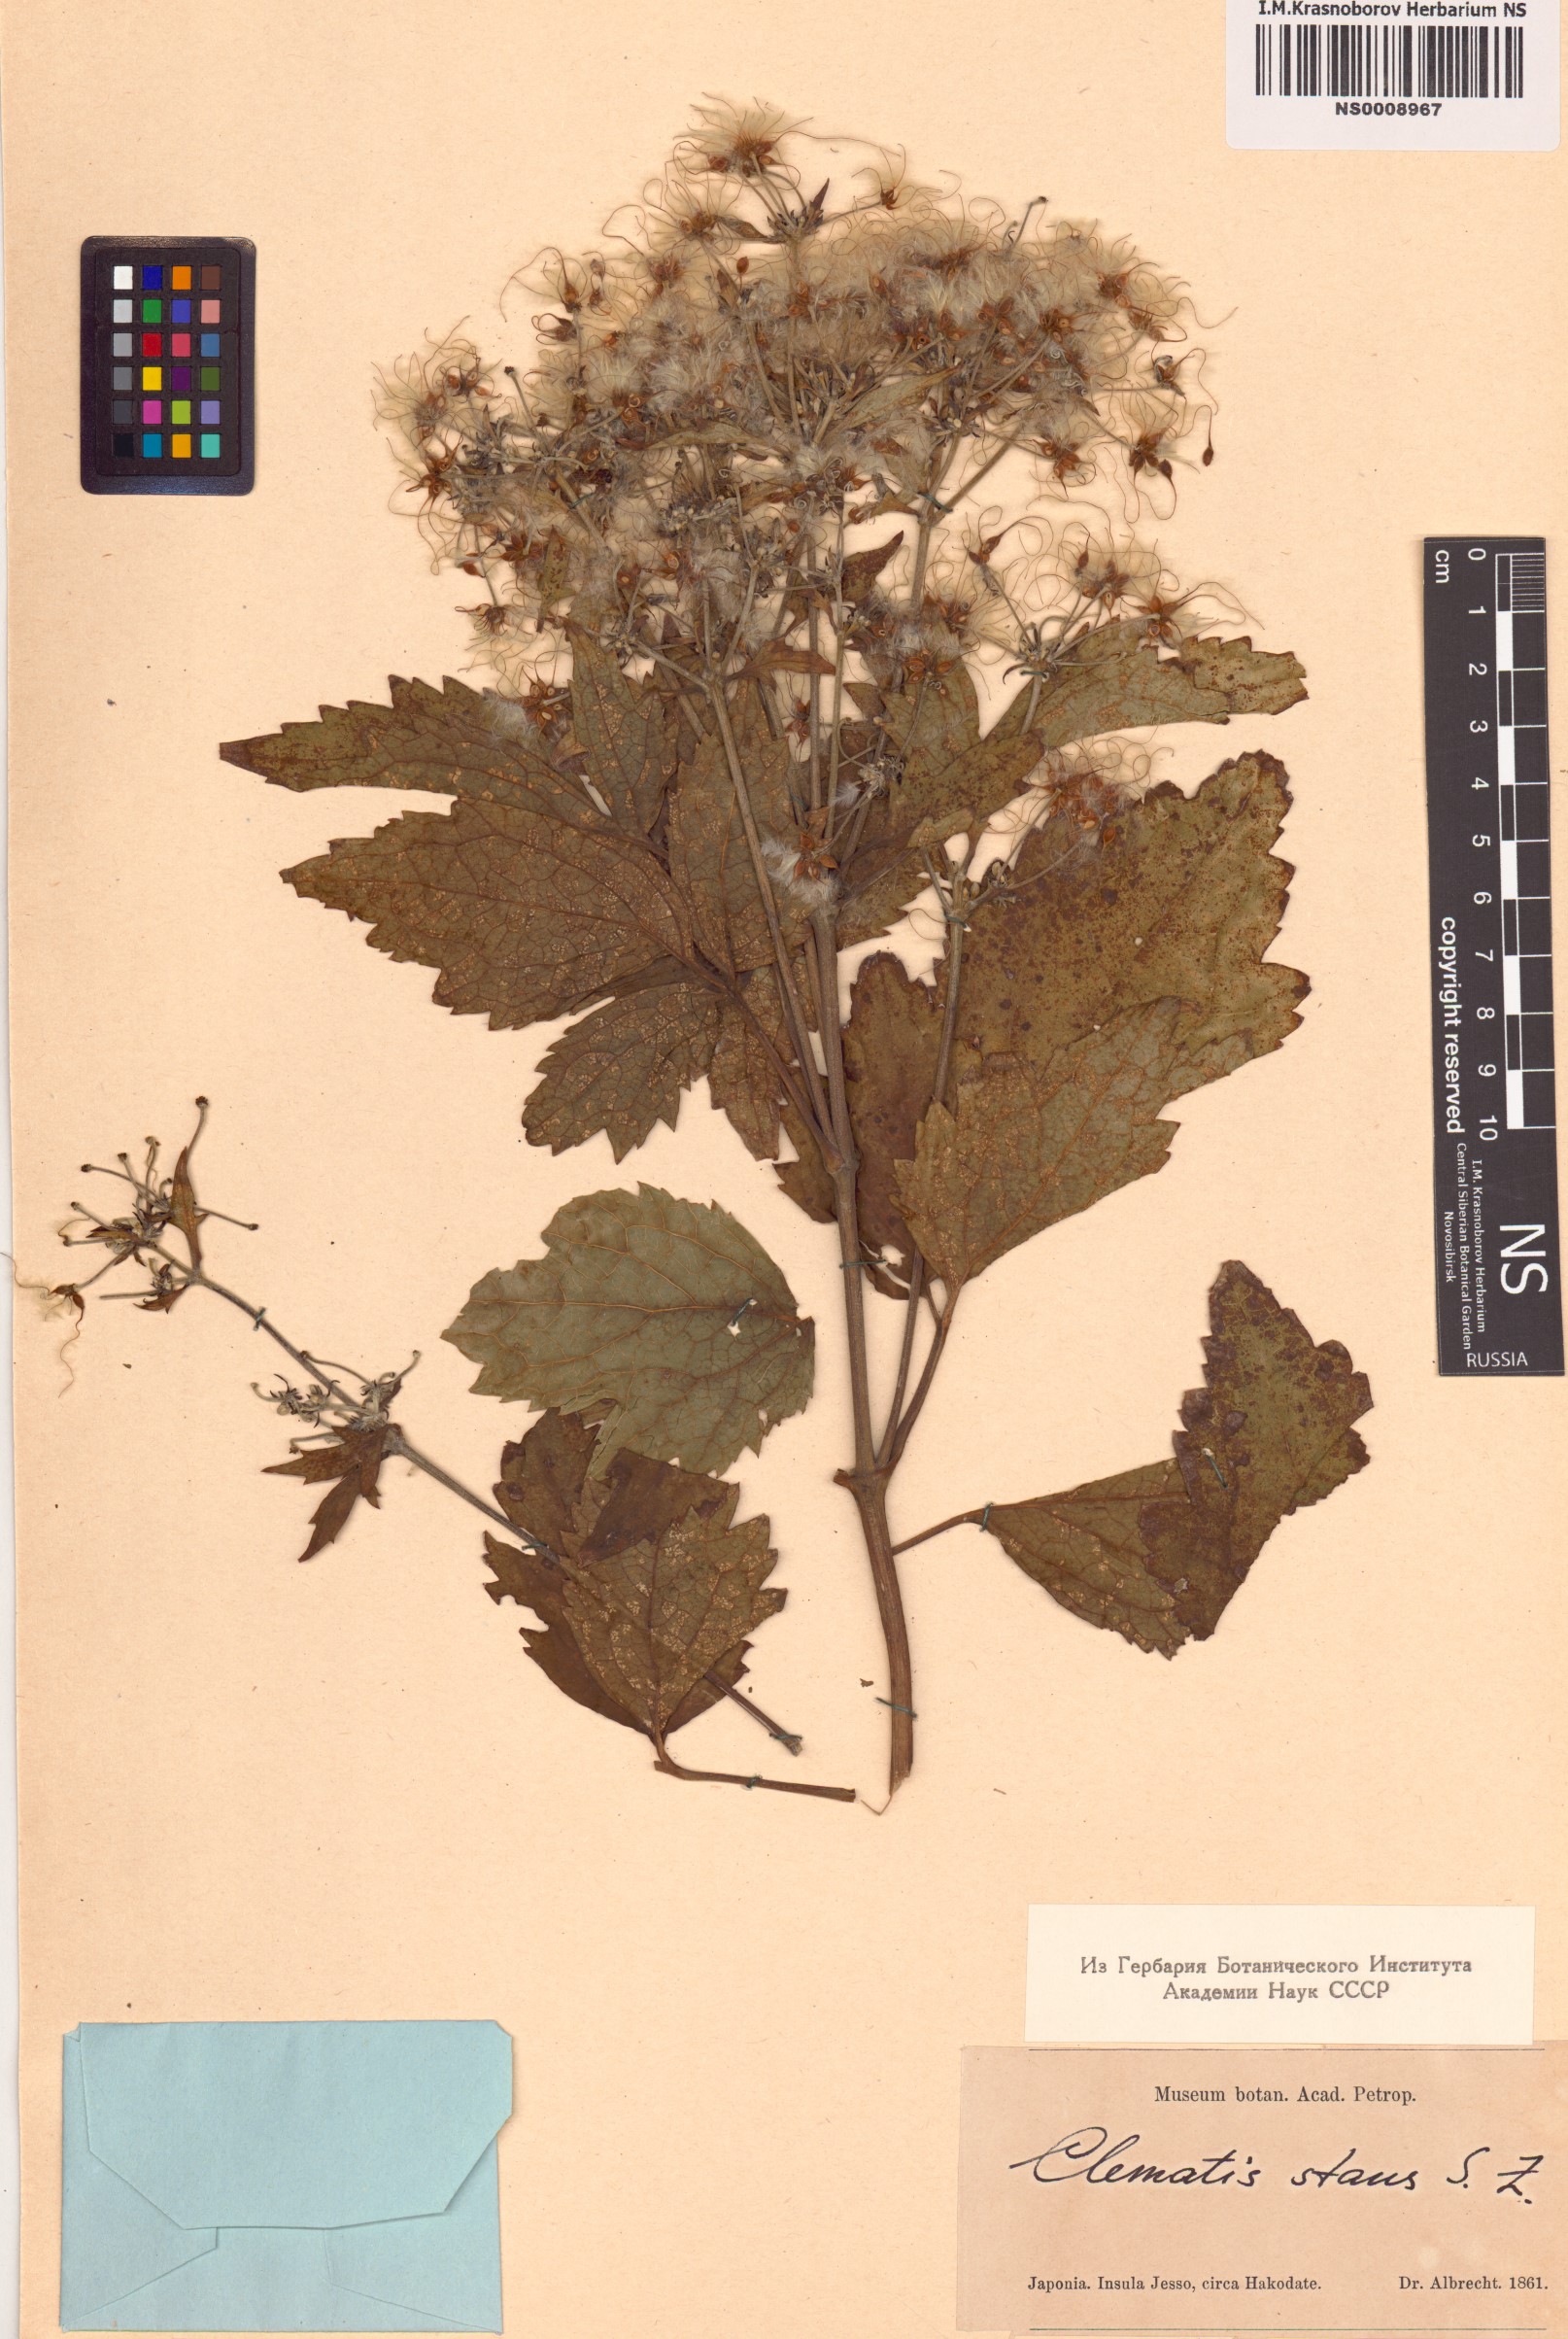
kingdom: Plantae
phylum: Tracheophyta
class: Magnoliopsida
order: Ranunculales
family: Ranunculaceae
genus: Clematis
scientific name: Clematis stans
